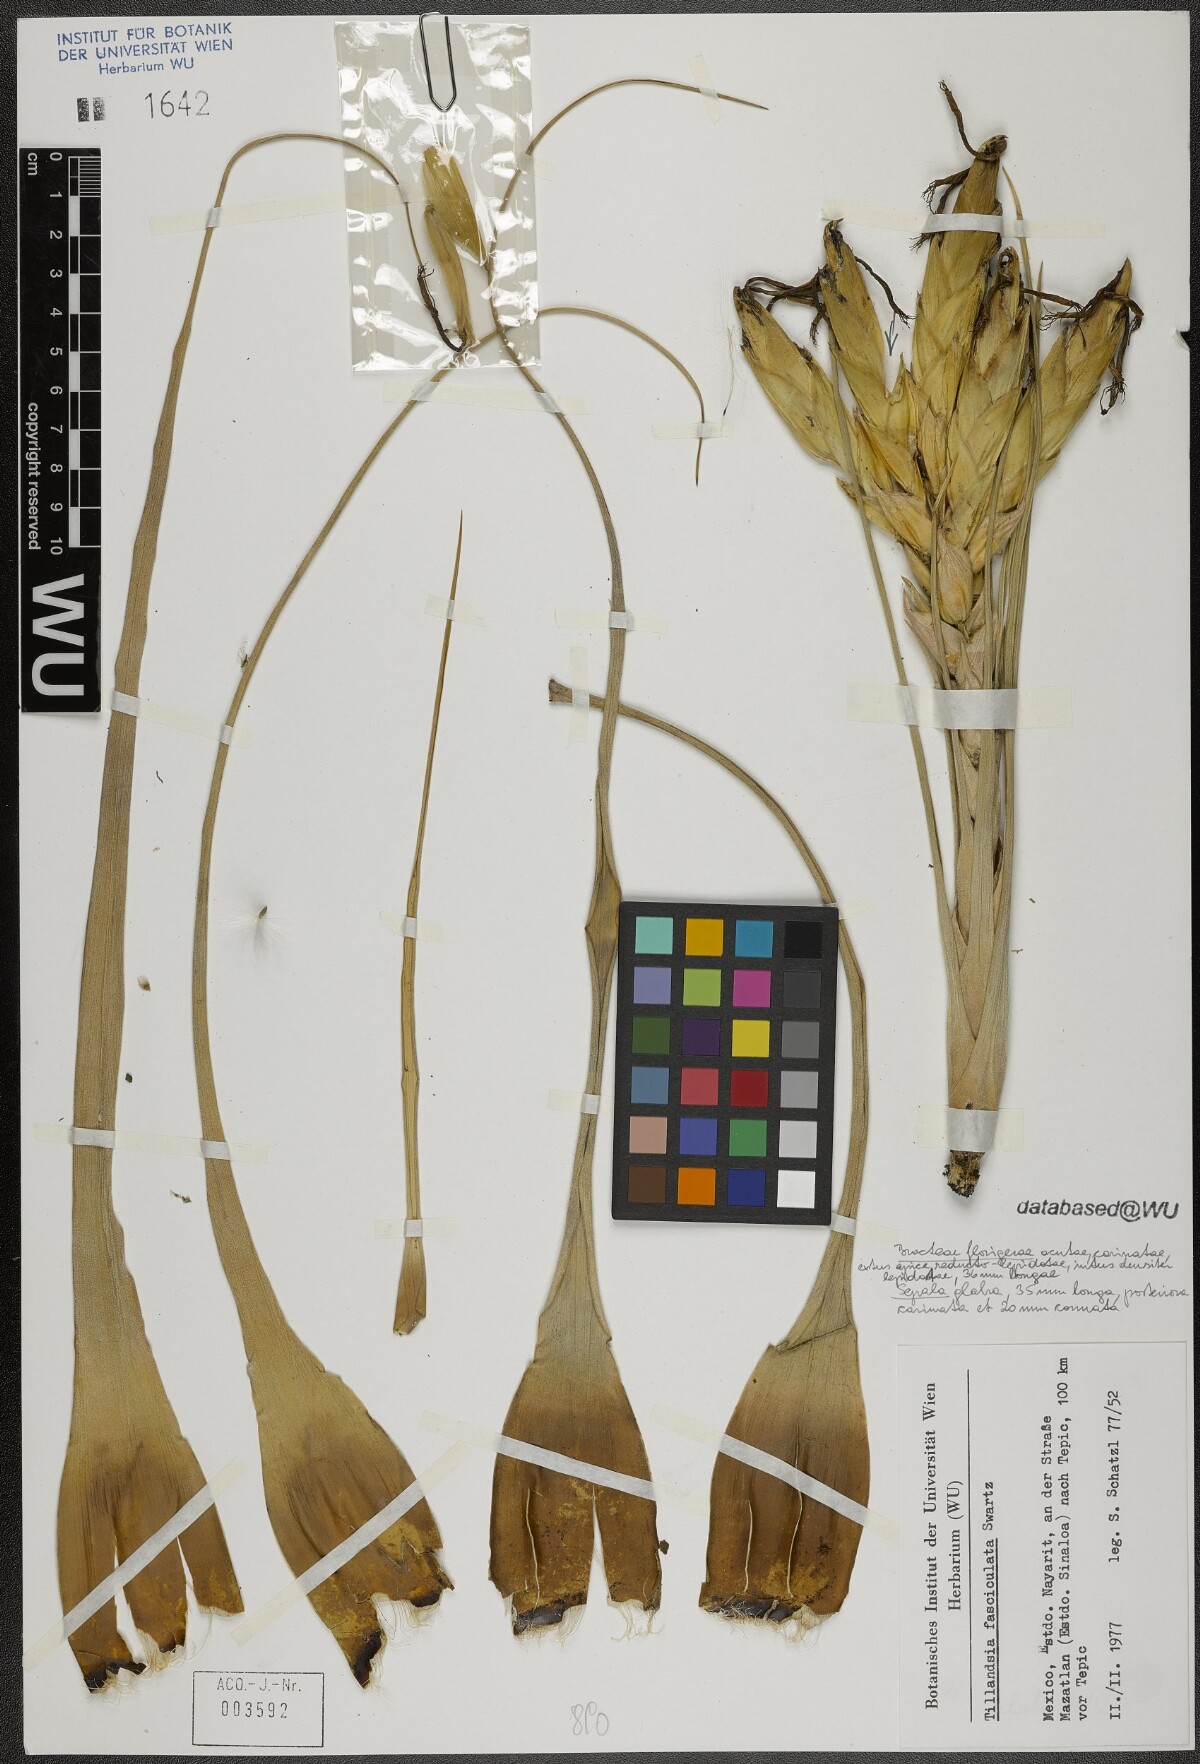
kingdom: Plantae
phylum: Tracheophyta
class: Liliopsida
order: Poales
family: Bromeliaceae
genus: Tillandsia
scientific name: Tillandsia fasciculata
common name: Giant airplant
